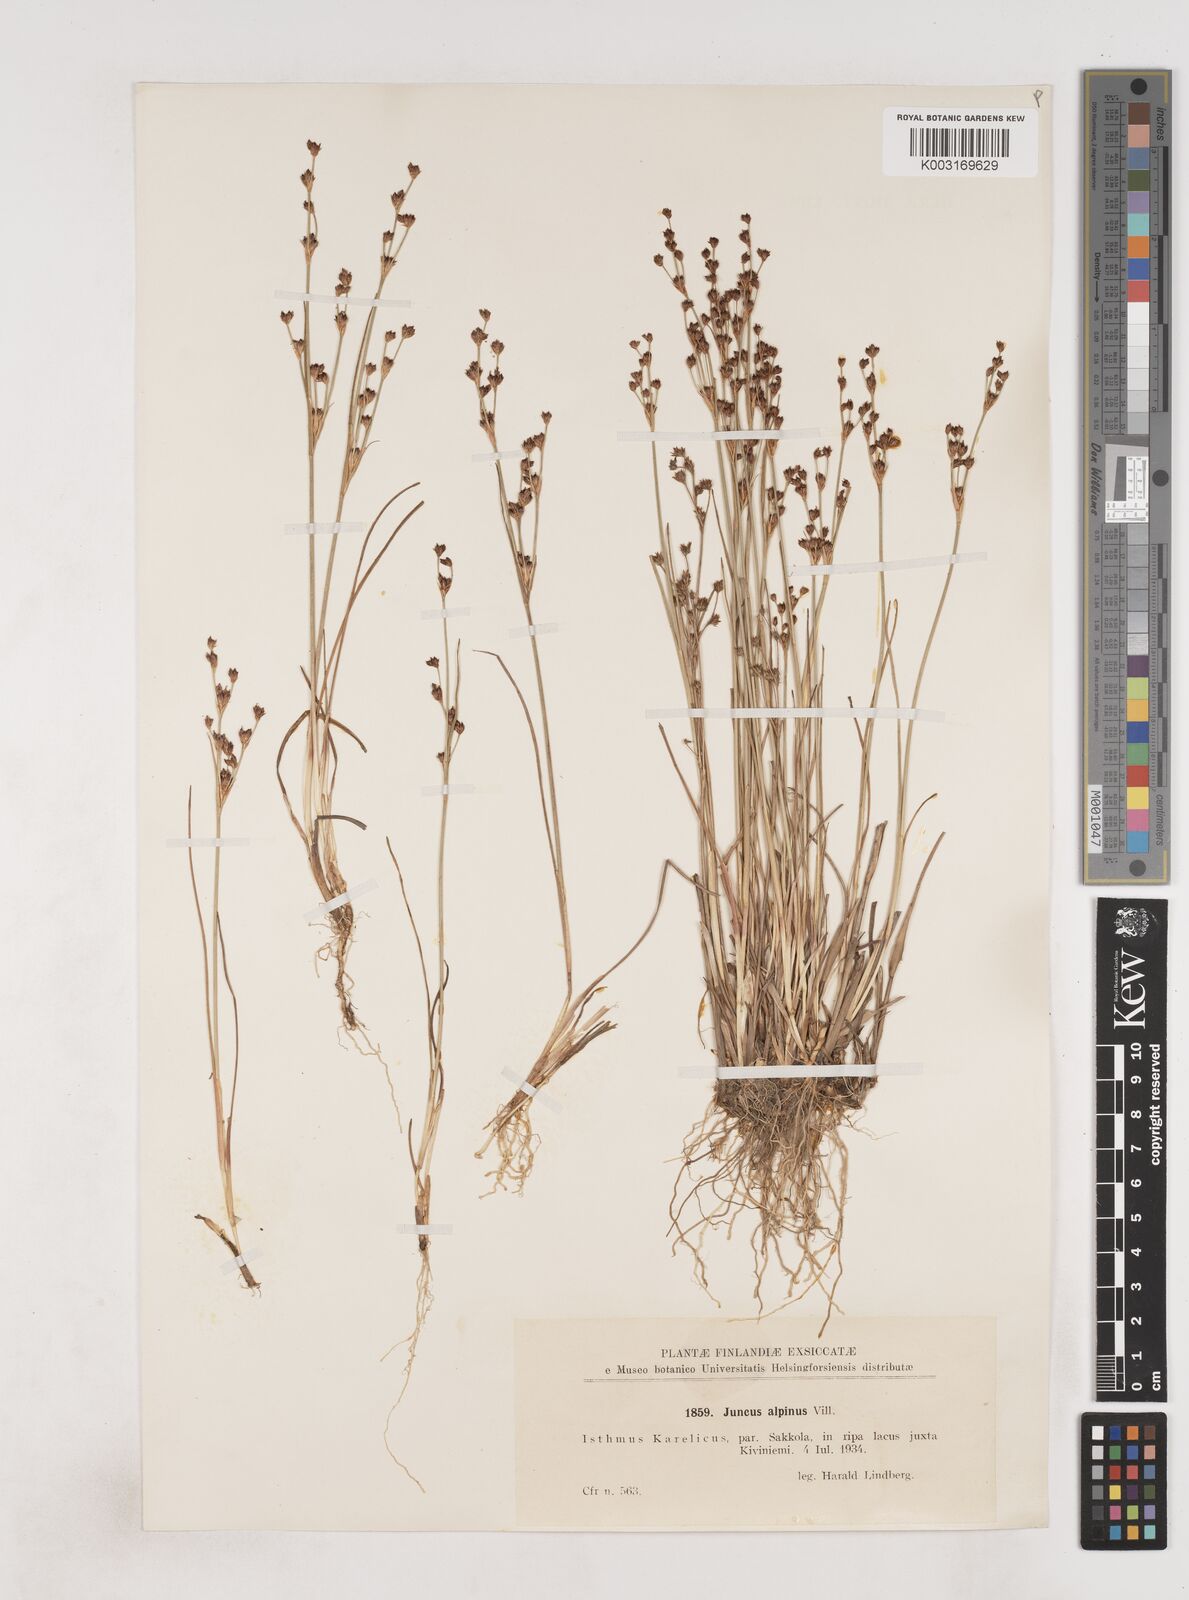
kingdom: Plantae
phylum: Tracheophyta
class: Liliopsida
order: Poales
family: Juncaceae
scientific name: Juncaceae
